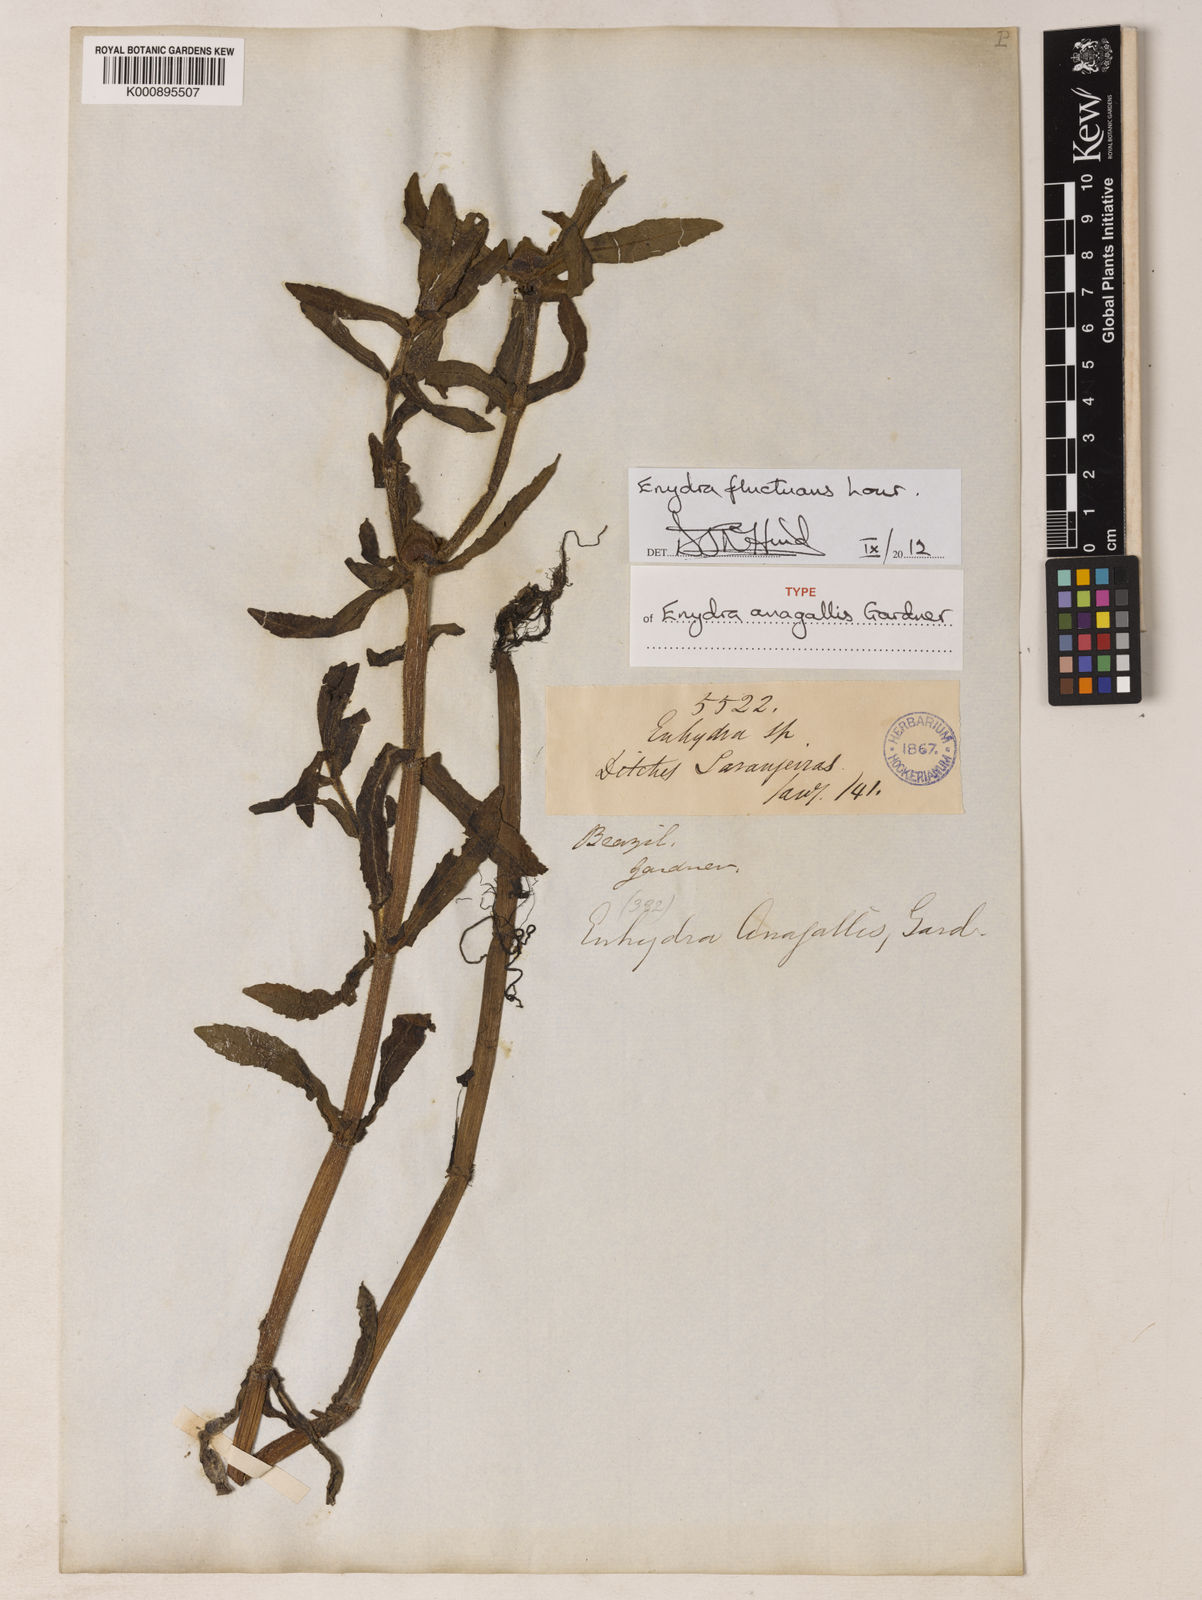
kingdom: Plantae
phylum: Tracheophyta
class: Magnoliopsida
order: Asterales
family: Asteraceae
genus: Enydra
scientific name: Enydra fluctuans
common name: Buffalo spinach
